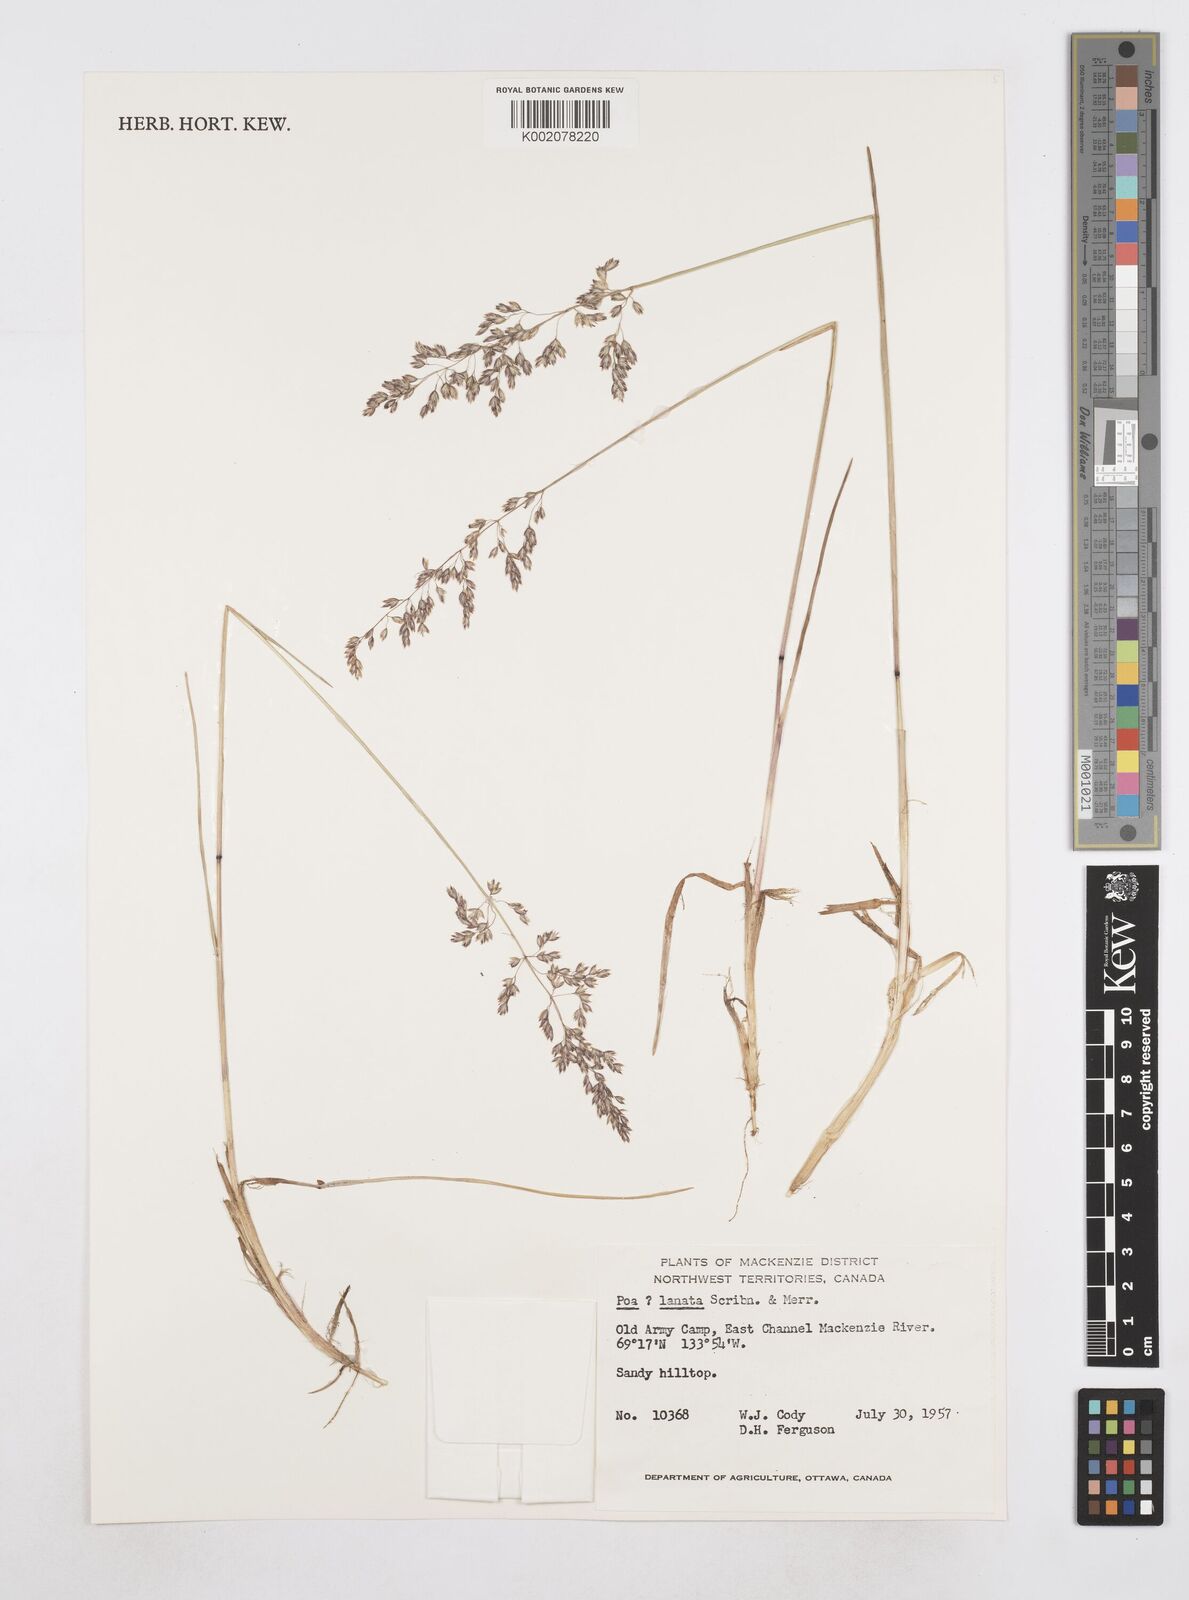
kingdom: Plantae
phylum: Tracheophyta
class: Liliopsida
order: Poales
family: Poaceae
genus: Poa
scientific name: Poa
